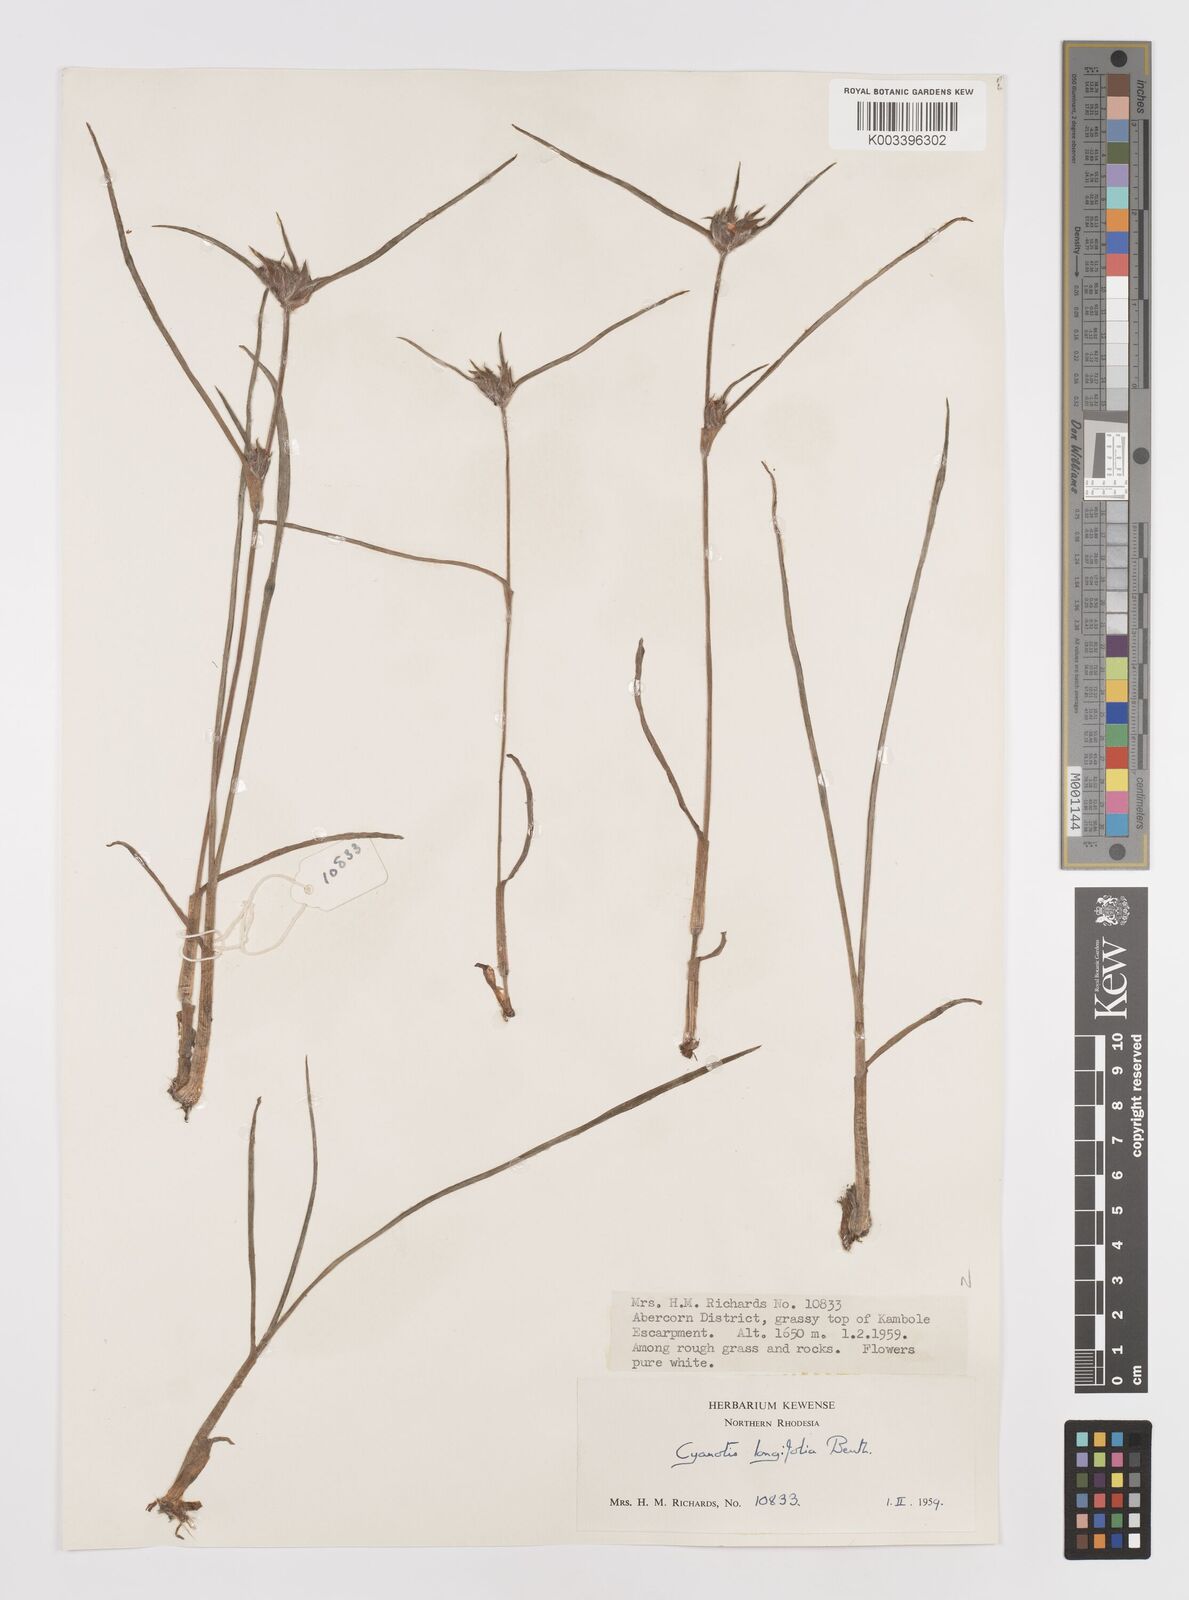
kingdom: Plantae
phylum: Tracheophyta
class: Liliopsida
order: Commelinales
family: Commelinaceae
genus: Cyanotis
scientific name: Cyanotis longifolia
